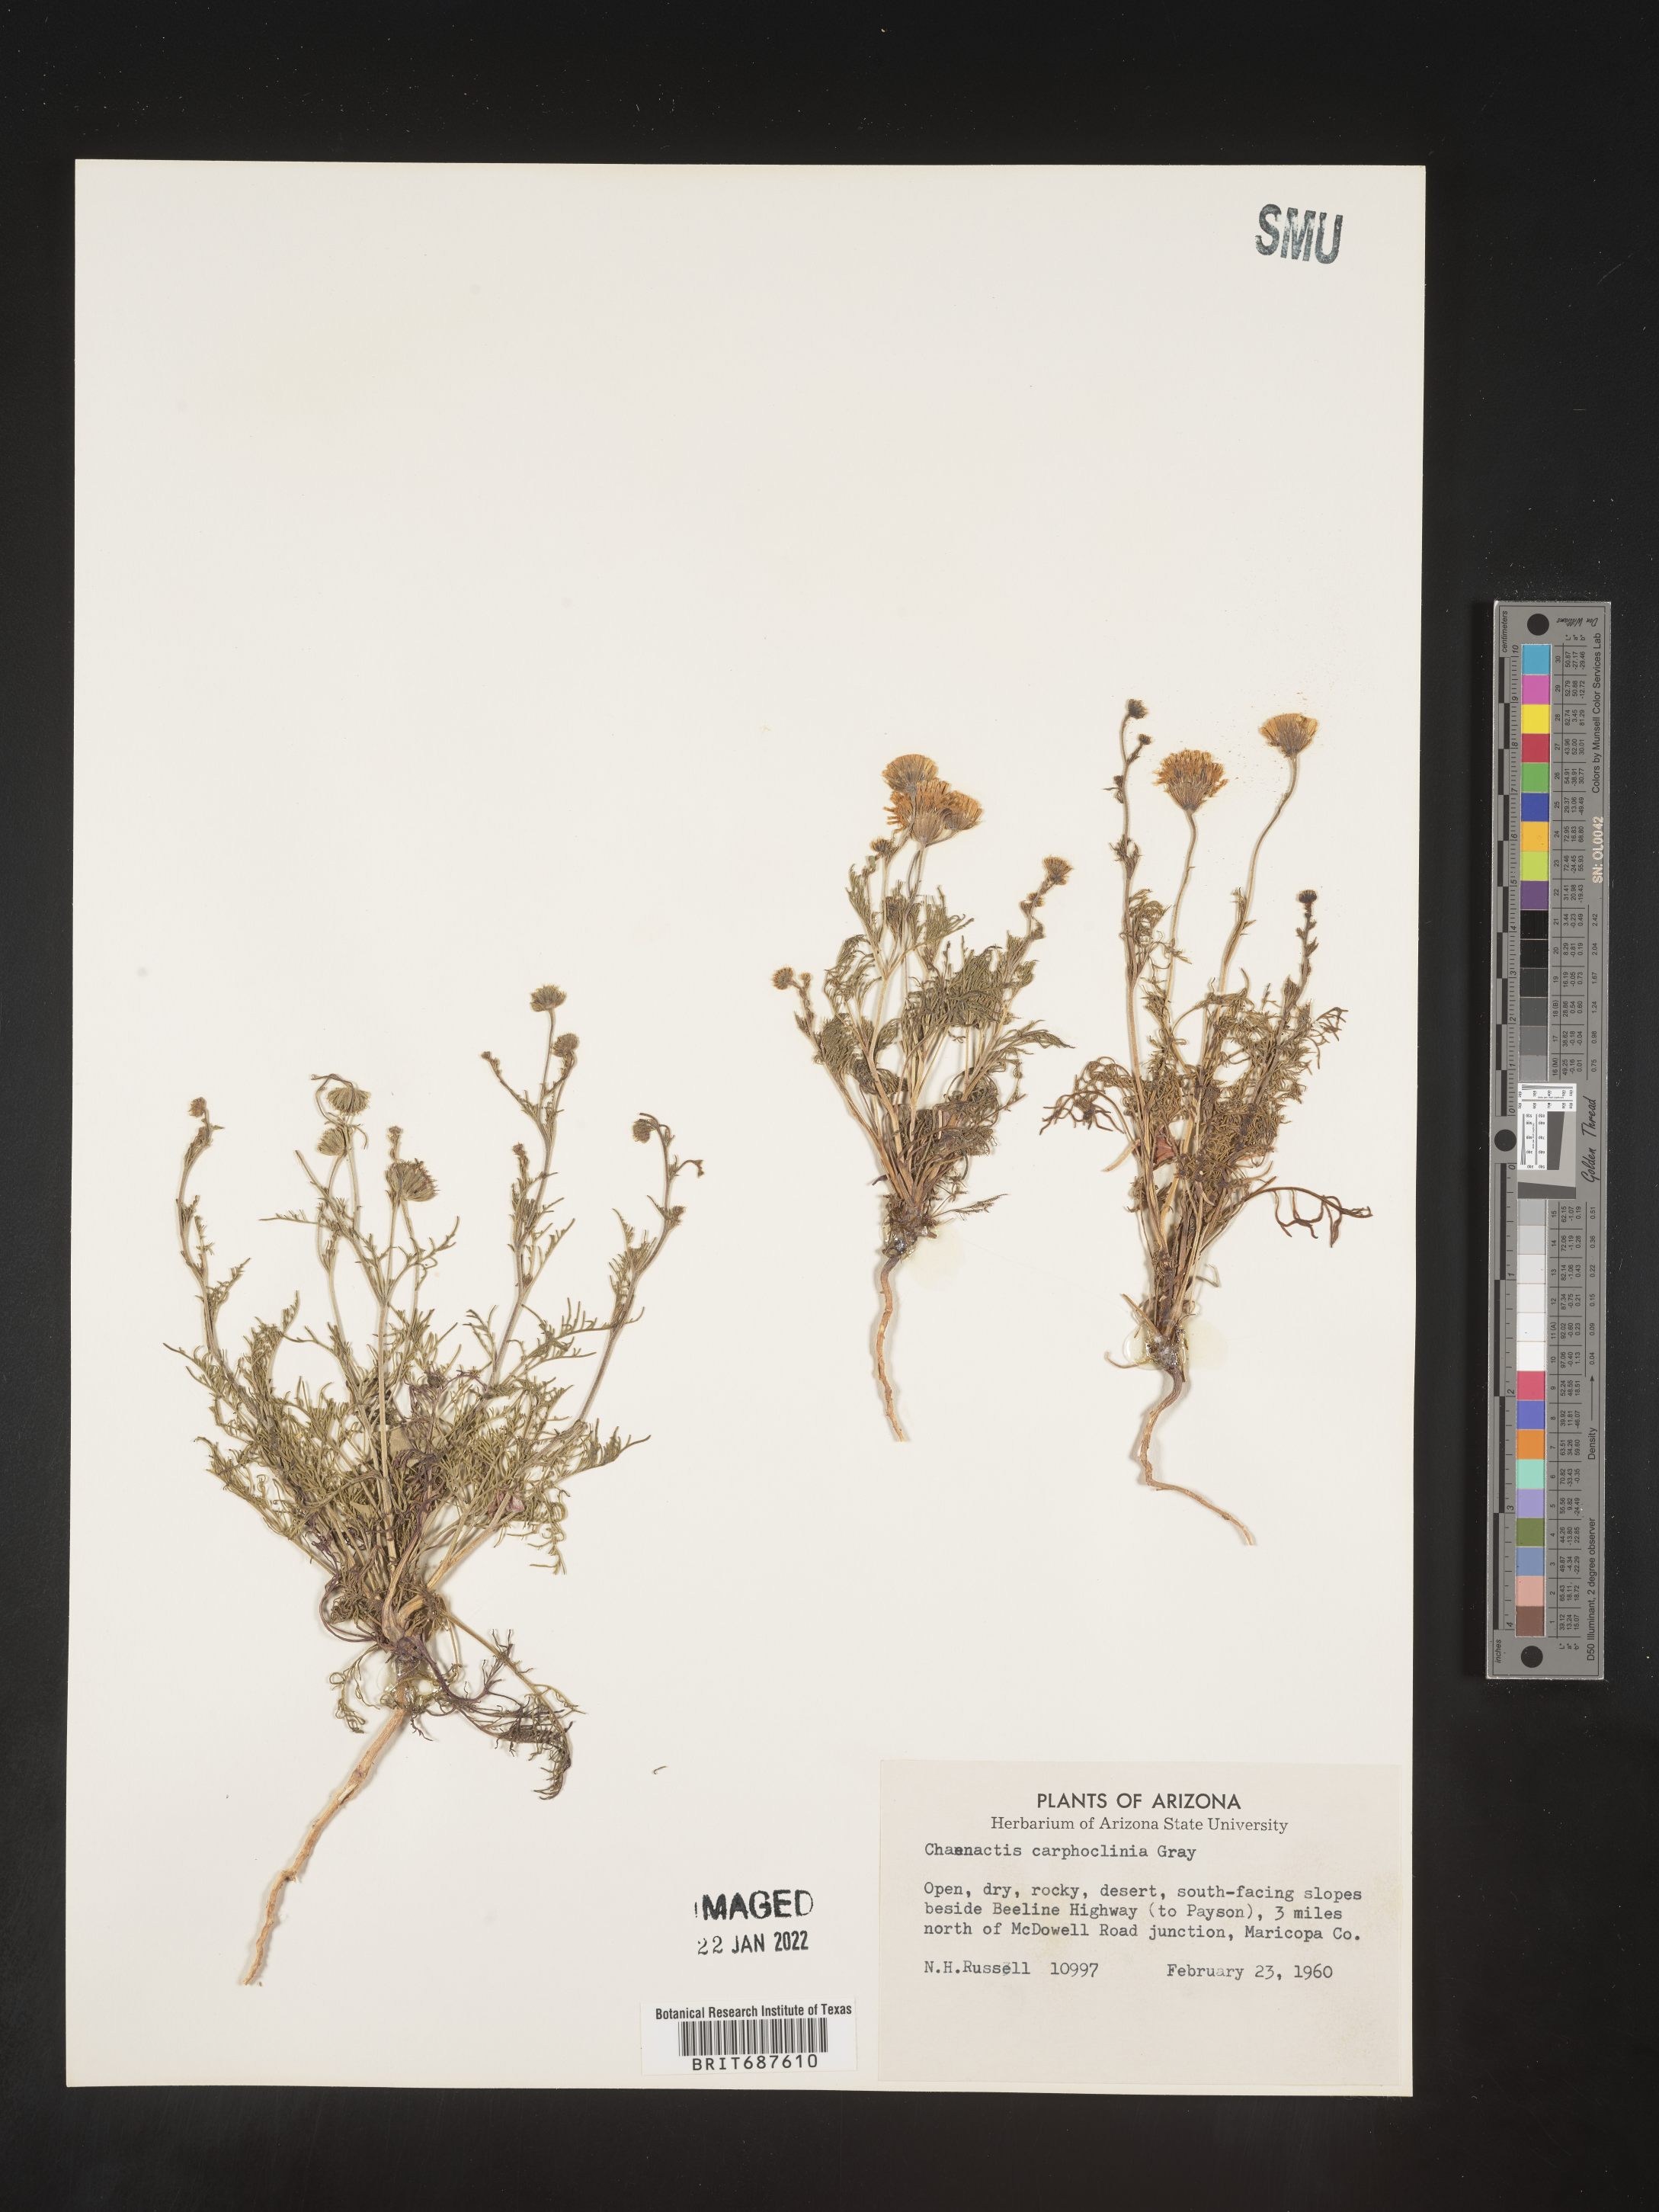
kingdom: Plantae
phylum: Tracheophyta
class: Magnoliopsida
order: Asterales
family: Asteraceae
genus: Chaenactis
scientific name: Chaenactis carphoclinia
